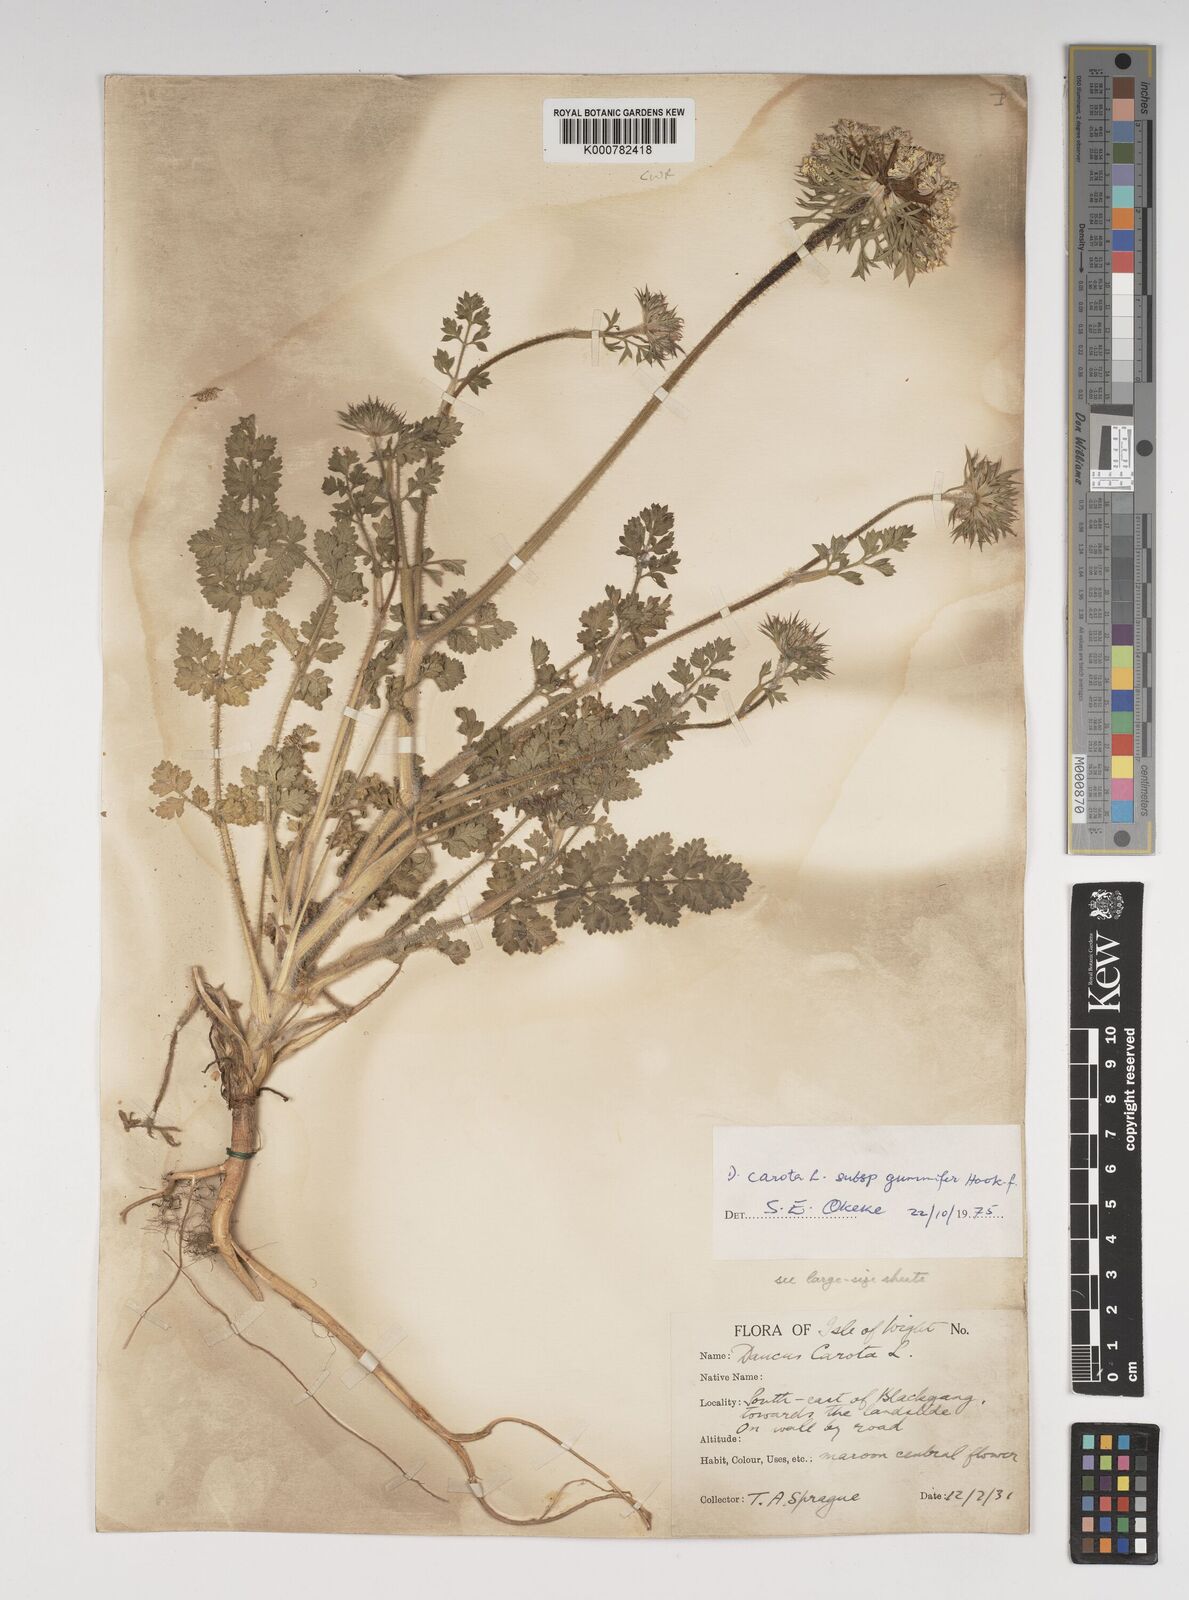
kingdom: Plantae
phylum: Tracheophyta
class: Magnoliopsida
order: Apiales
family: Apiaceae
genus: Daucus
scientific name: Daucus carota
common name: Wild carrot
